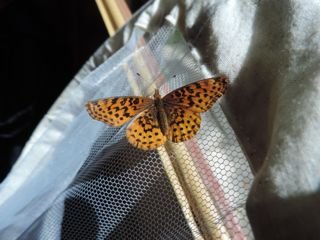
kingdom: Animalia
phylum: Arthropoda
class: Insecta
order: Lepidoptera
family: Nymphalidae
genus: Clossiana
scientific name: Clossiana toddi
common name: Meadow Fritillary
